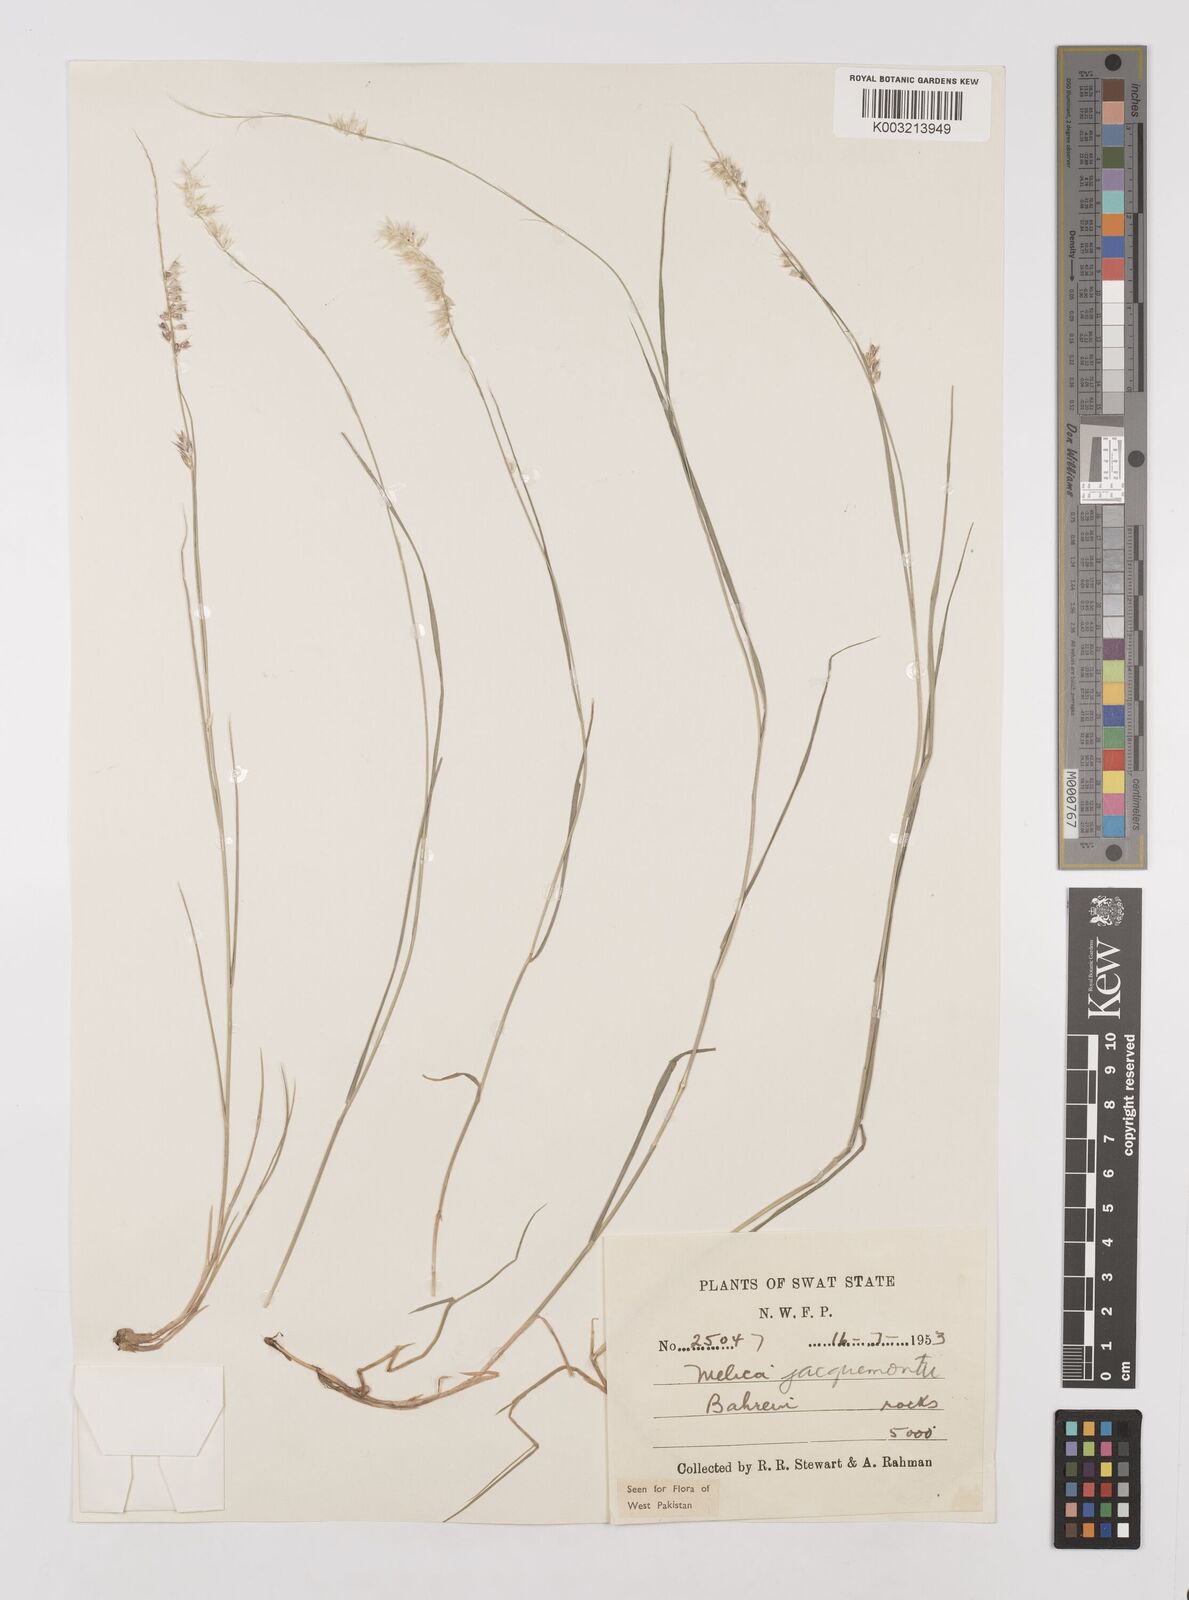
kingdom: Plantae
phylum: Tracheophyta
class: Liliopsida
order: Poales
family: Poaceae
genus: Melica
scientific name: Melica persica
